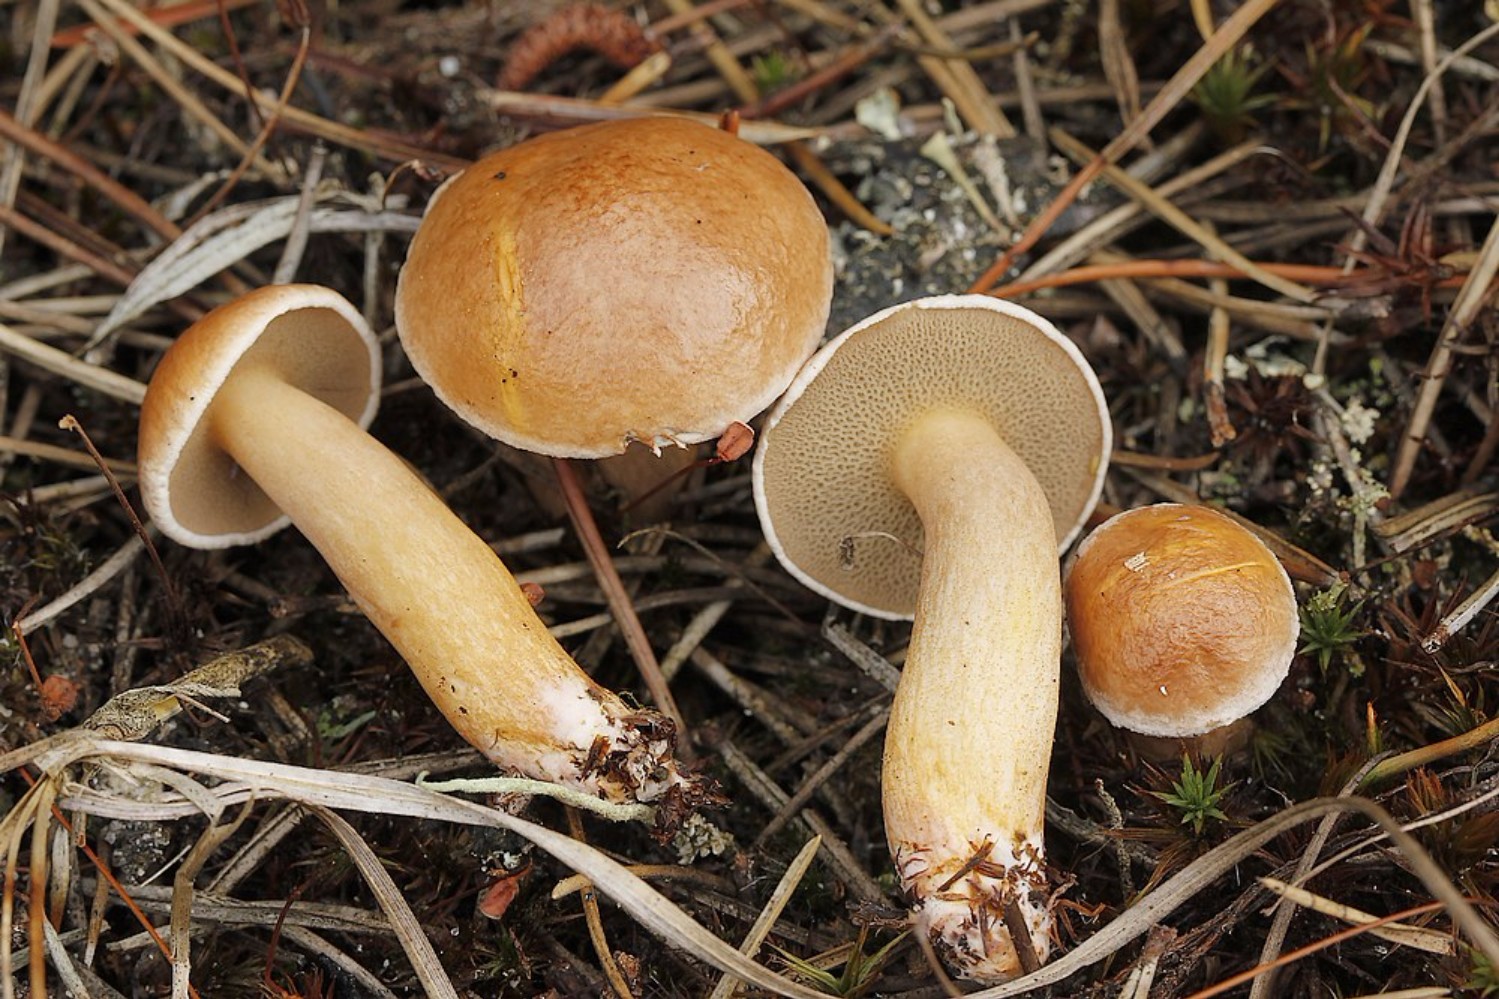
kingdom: Fungi
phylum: Basidiomycota
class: Agaricomycetes
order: Boletales
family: Suillaceae
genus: Suillus
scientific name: Suillus bovinus
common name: grovporet slimrørhat
